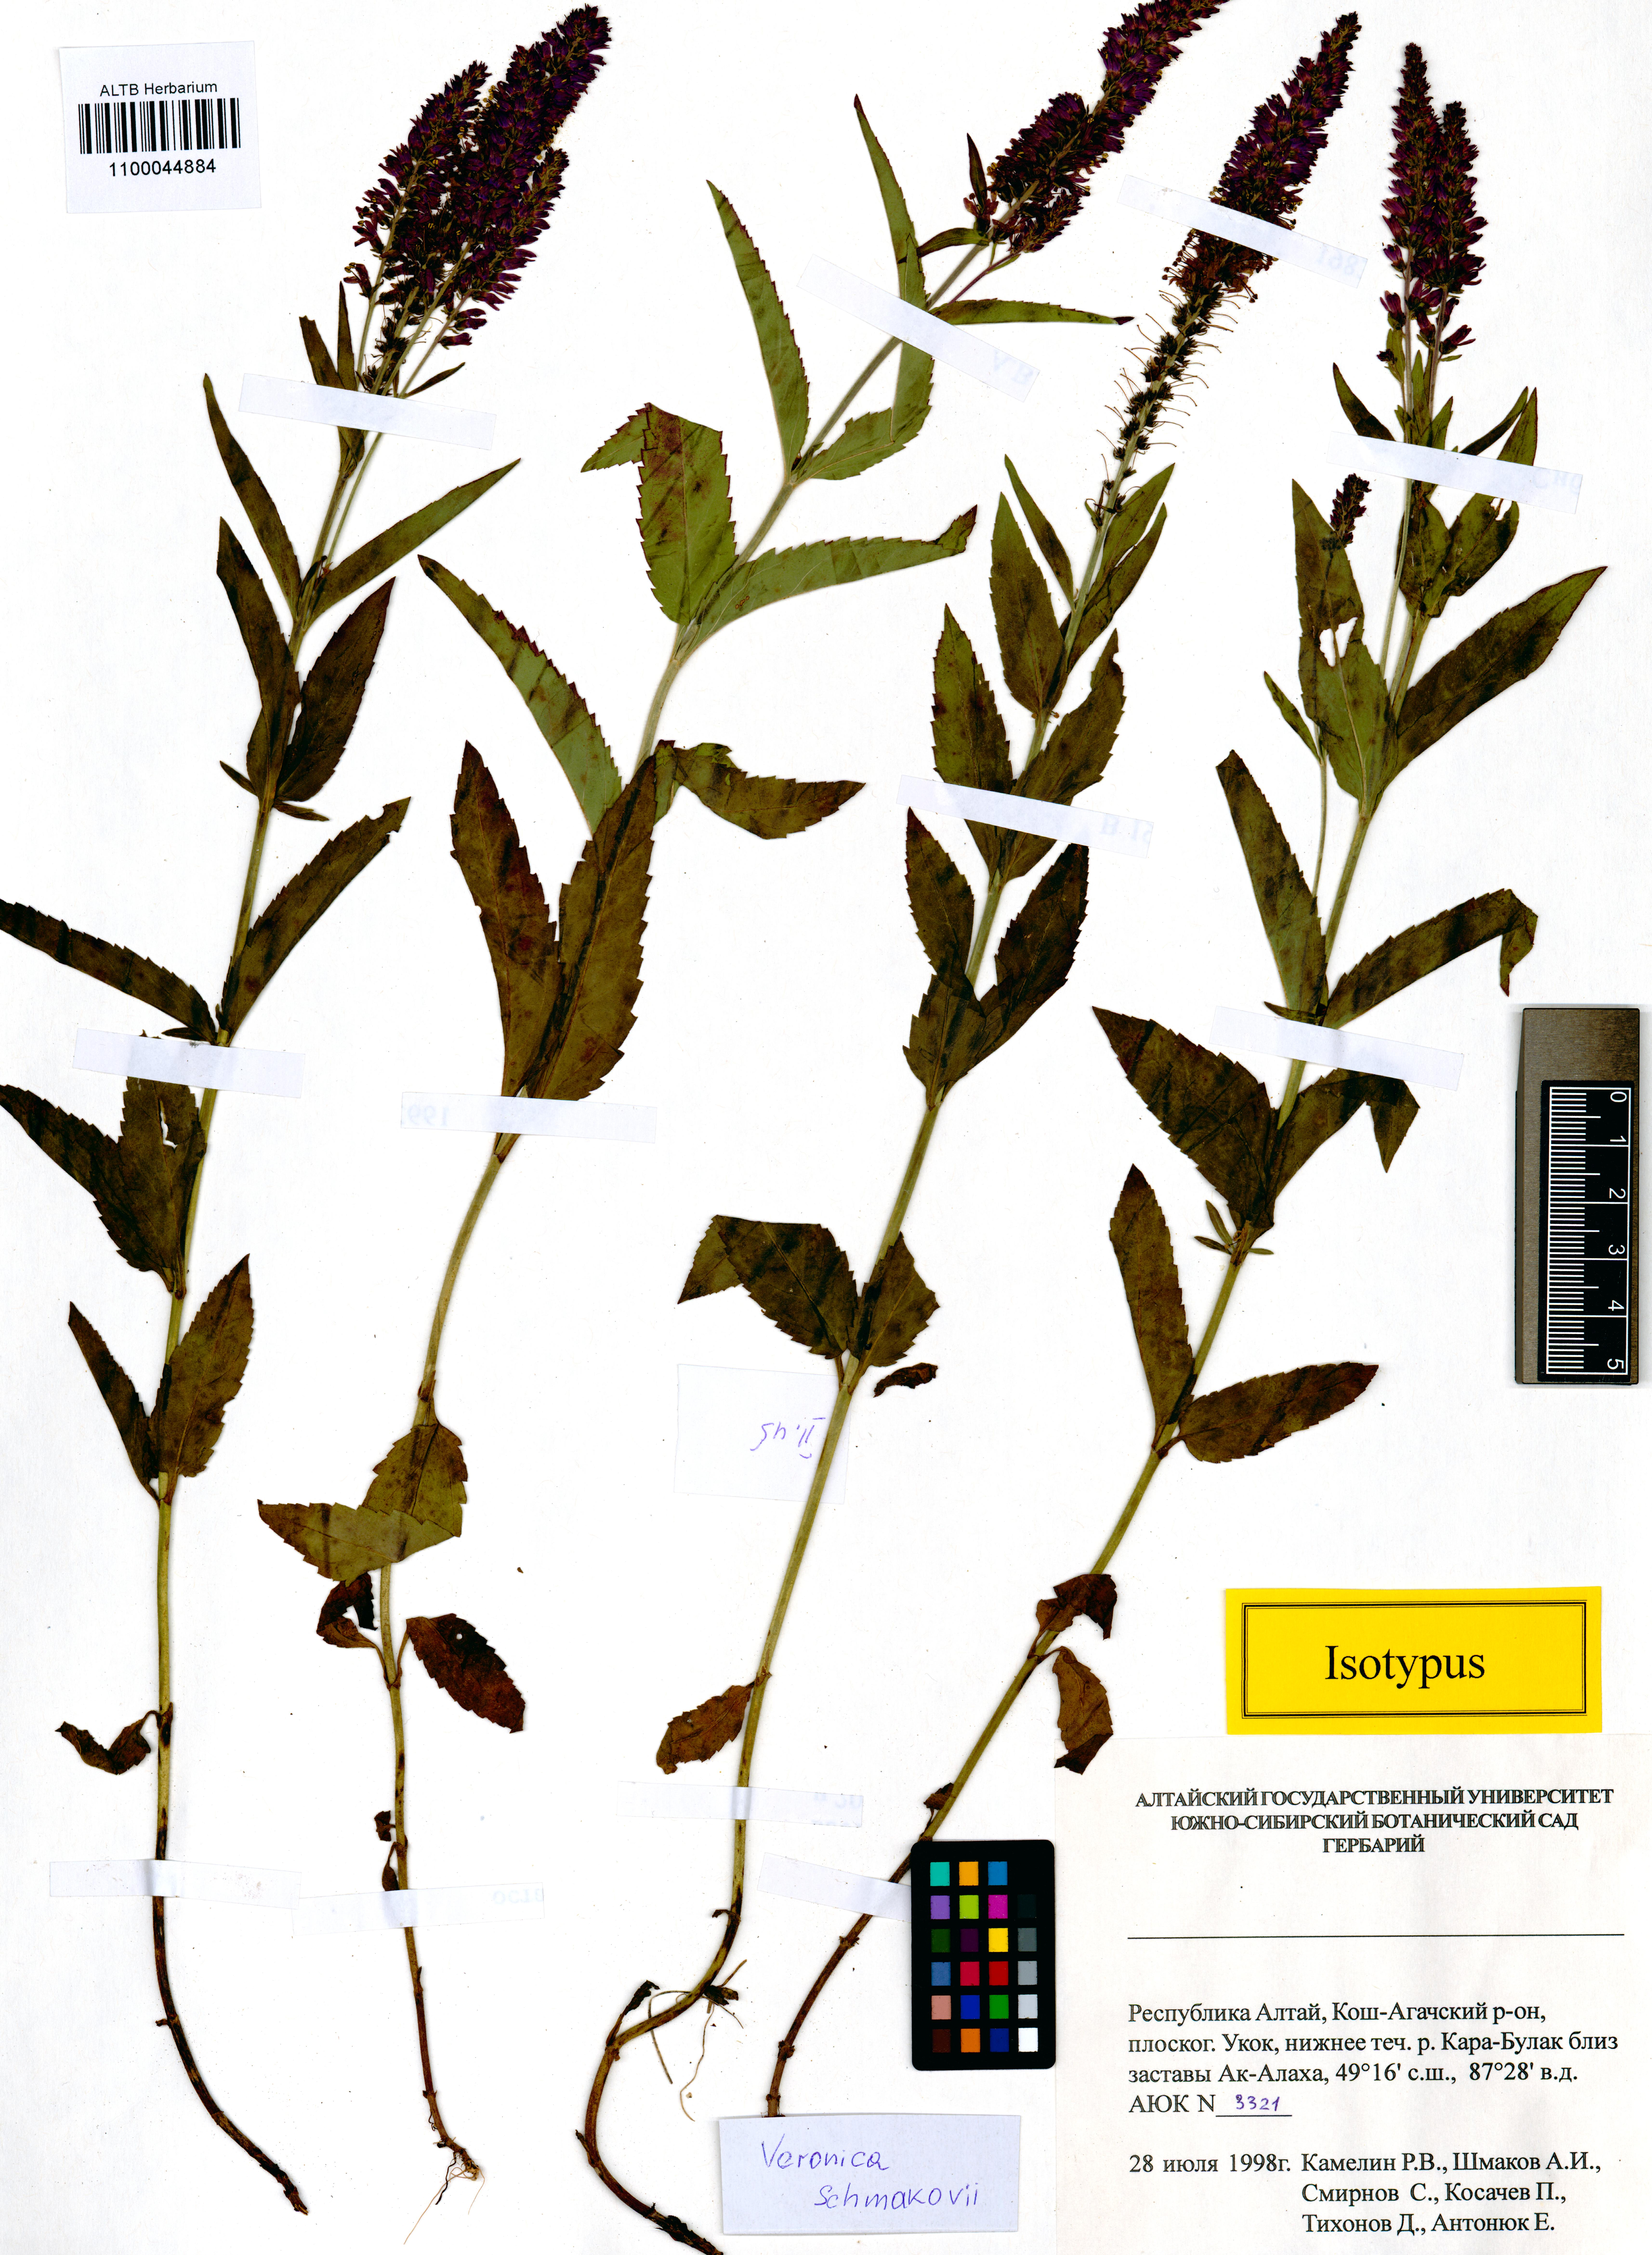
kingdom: Plantae
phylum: Tracheophyta
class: Magnoliopsida
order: Lamiales
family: Plantaginaceae
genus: Veronica
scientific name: Veronica schmakovii
